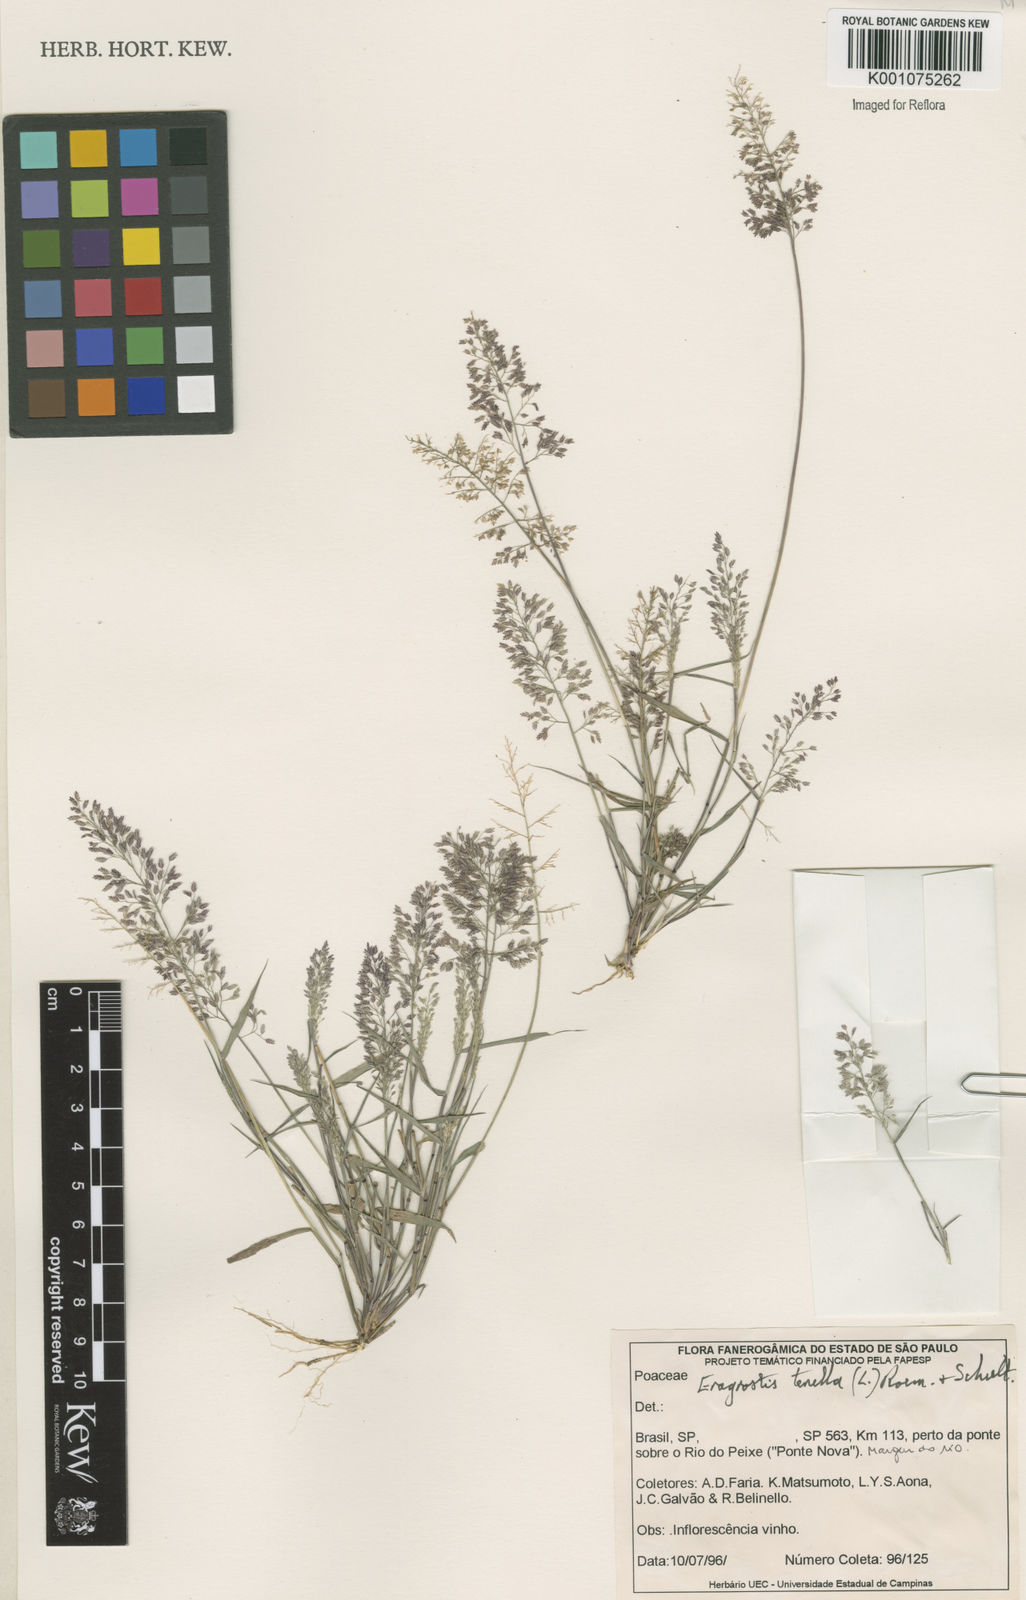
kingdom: Plantae
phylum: Tracheophyta
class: Liliopsida
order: Poales
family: Poaceae
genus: Eragrostis
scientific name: Eragrostis tenella
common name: Japanese lovegrass
